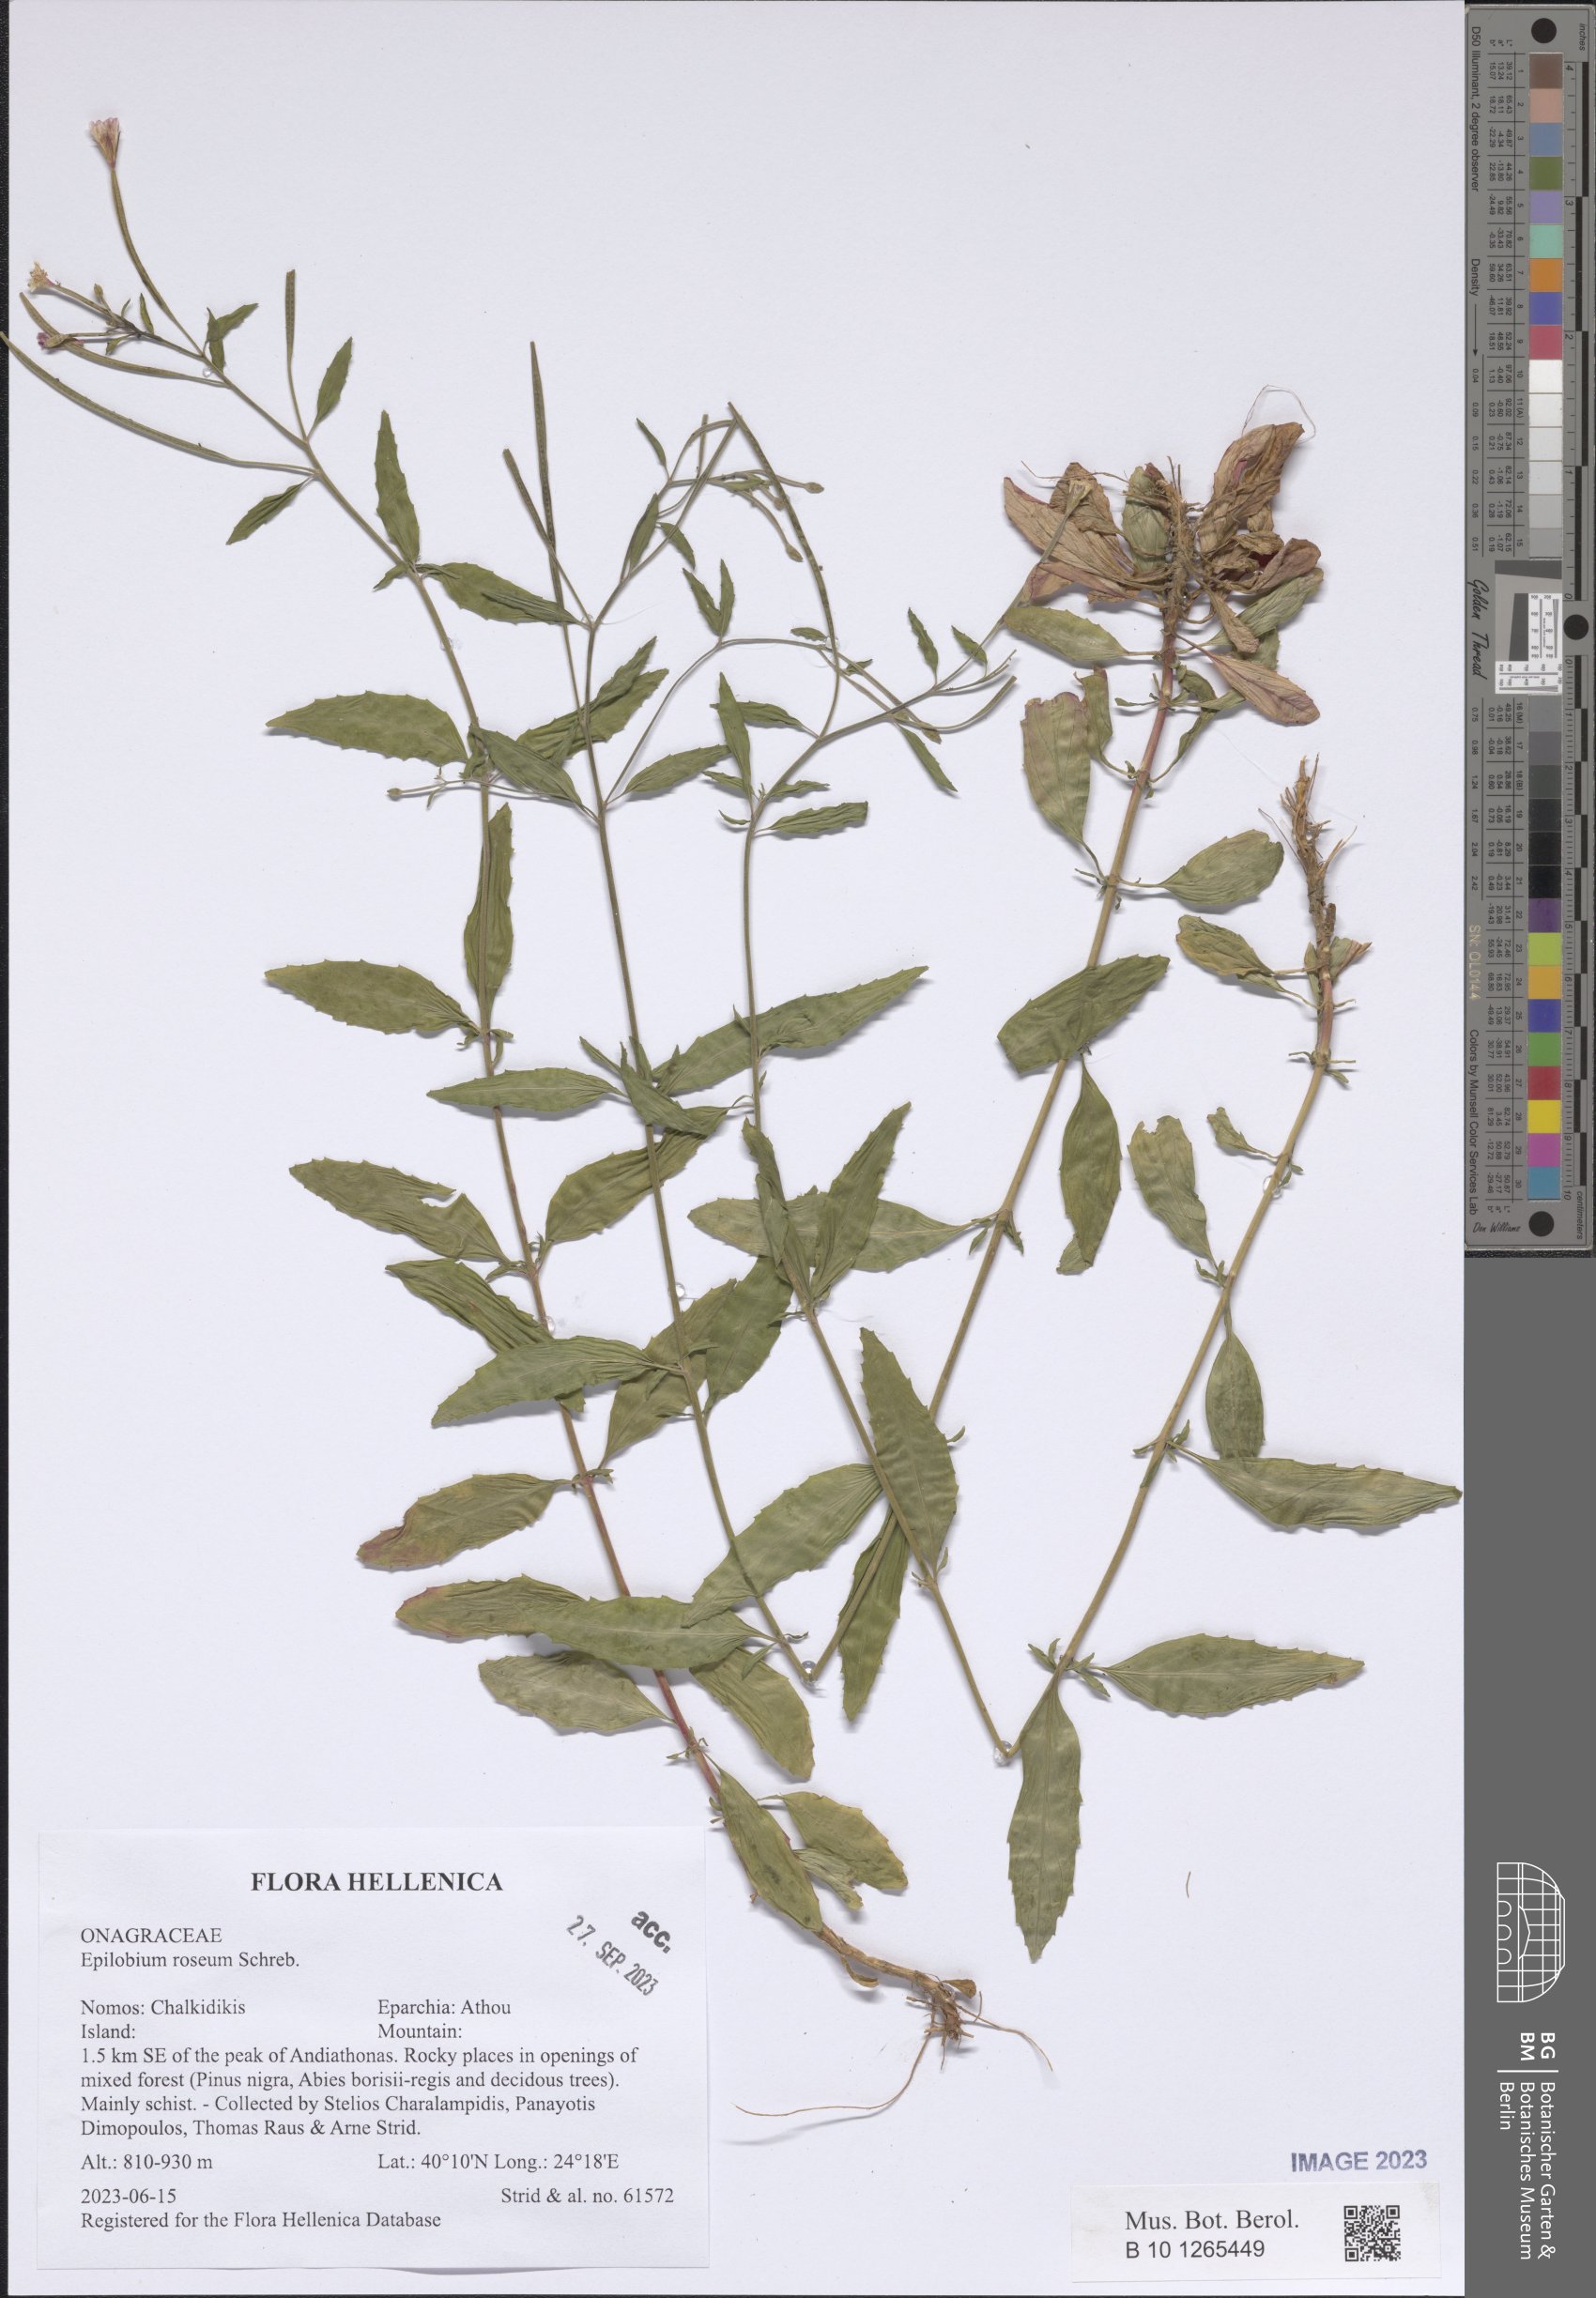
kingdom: Plantae
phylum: Tracheophyta
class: Magnoliopsida
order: Myrtales
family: Onagraceae
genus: Epilobium
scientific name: Epilobium roseum
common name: Pale willowherb
